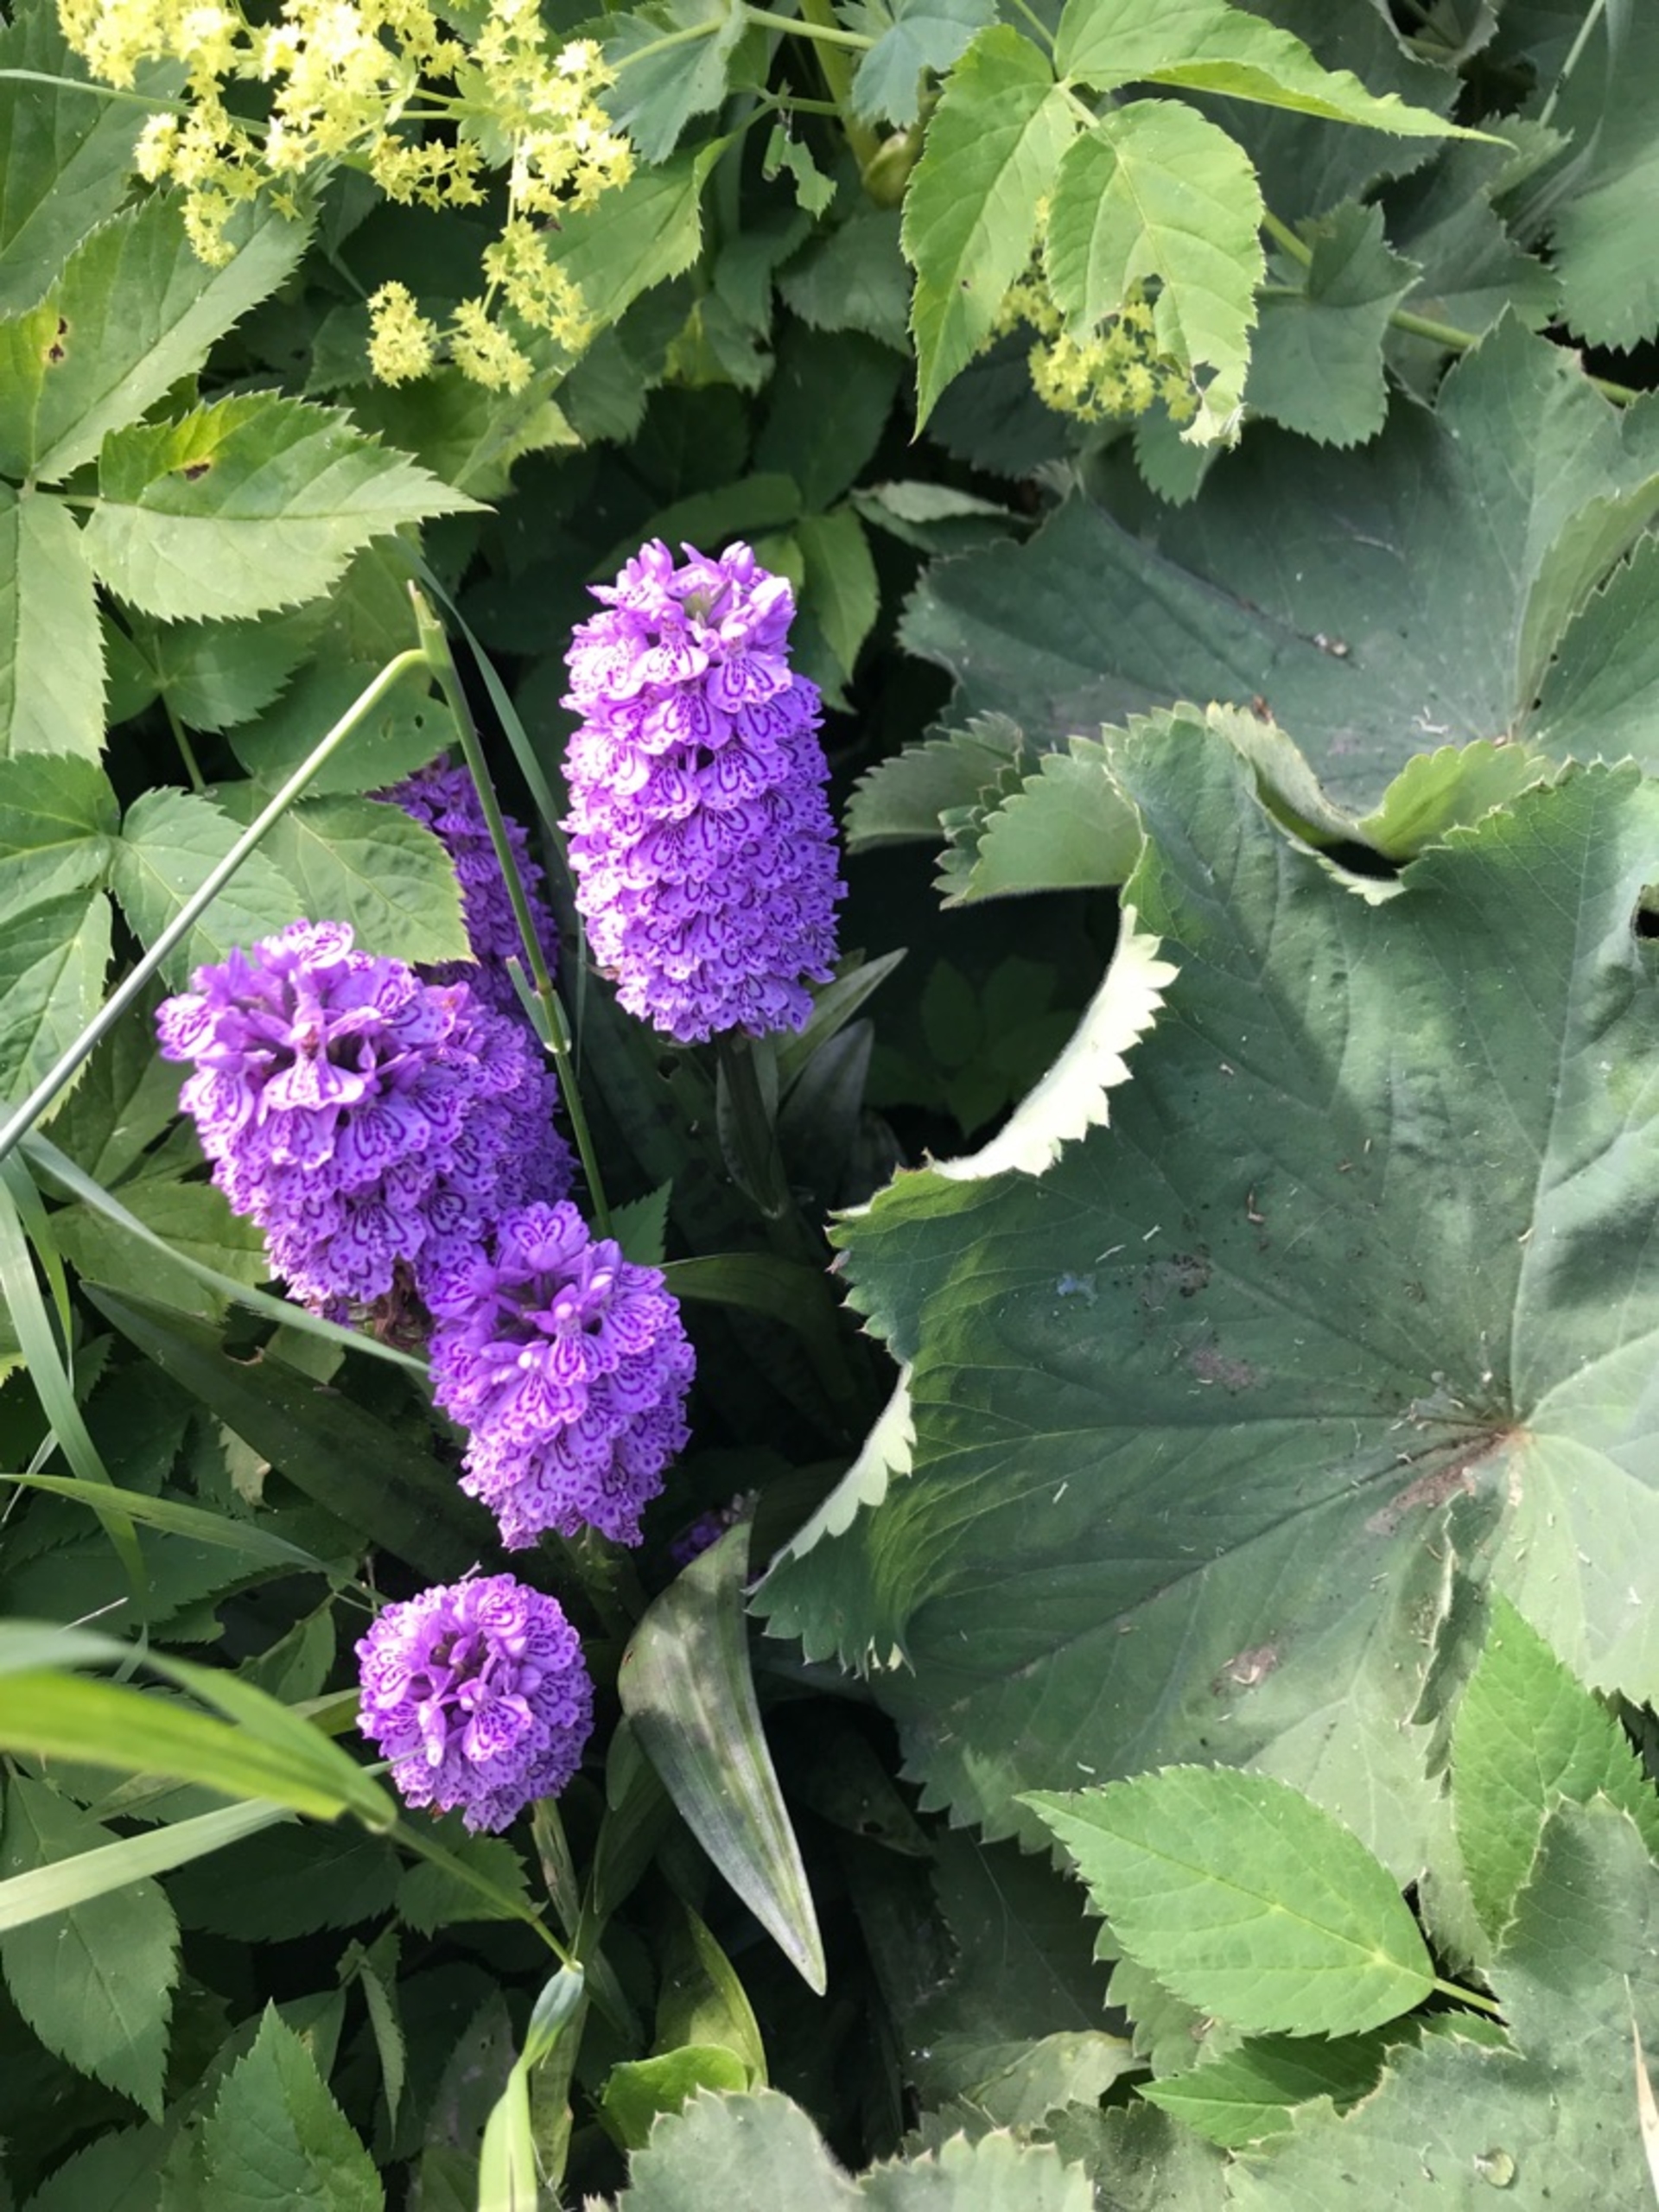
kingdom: Plantae
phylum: Tracheophyta
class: Liliopsida
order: Asparagales
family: Orchidaceae
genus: Dactylorhiza
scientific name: Dactylorhiza majalis
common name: Vendsyssel-gøgeurt
